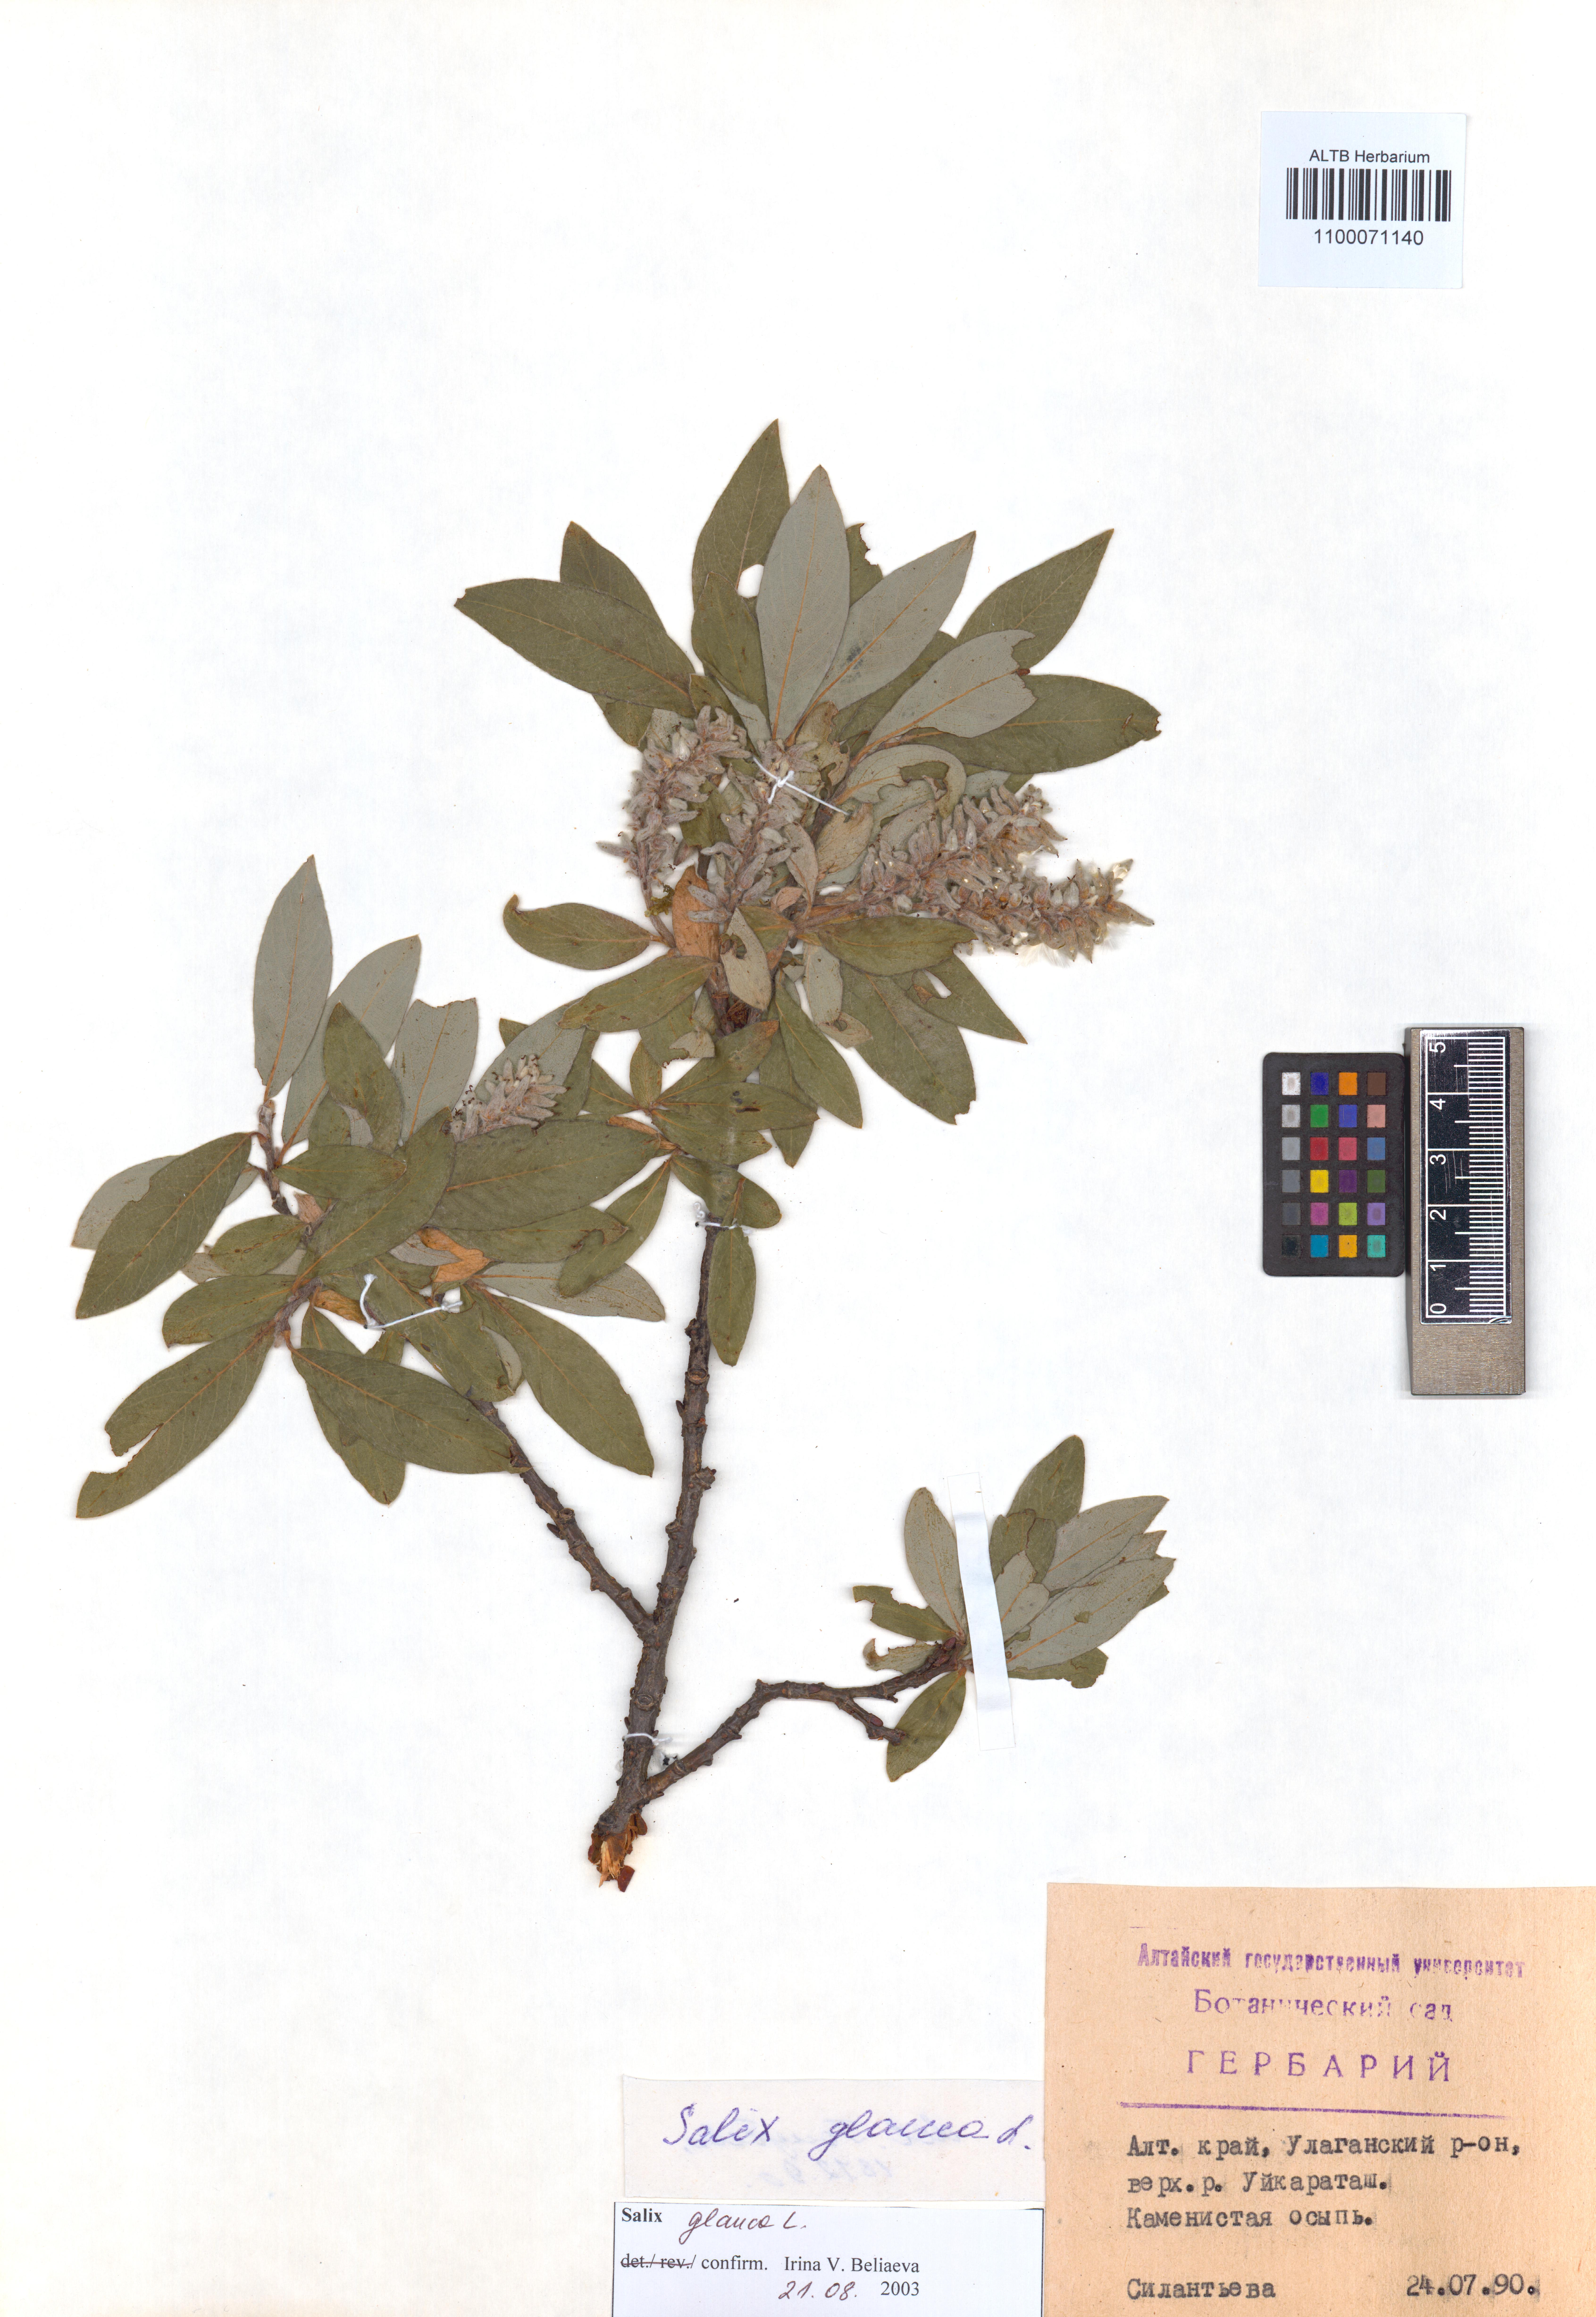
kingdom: Plantae
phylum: Tracheophyta
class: Magnoliopsida
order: Malpighiales
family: Salicaceae
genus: Salix
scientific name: Salix glauca
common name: Glaucous willow
